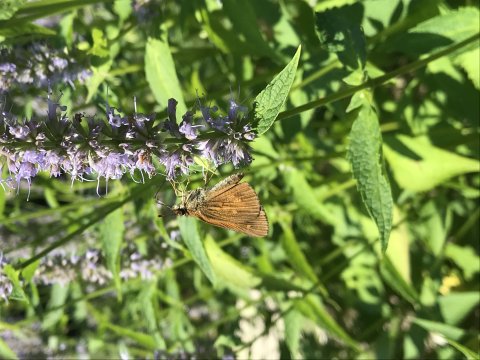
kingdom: Animalia
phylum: Arthropoda
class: Insecta
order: Lepidoptera
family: Hesperiidae
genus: Poanes
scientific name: Poanes viator
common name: Broad-winged Skipper
